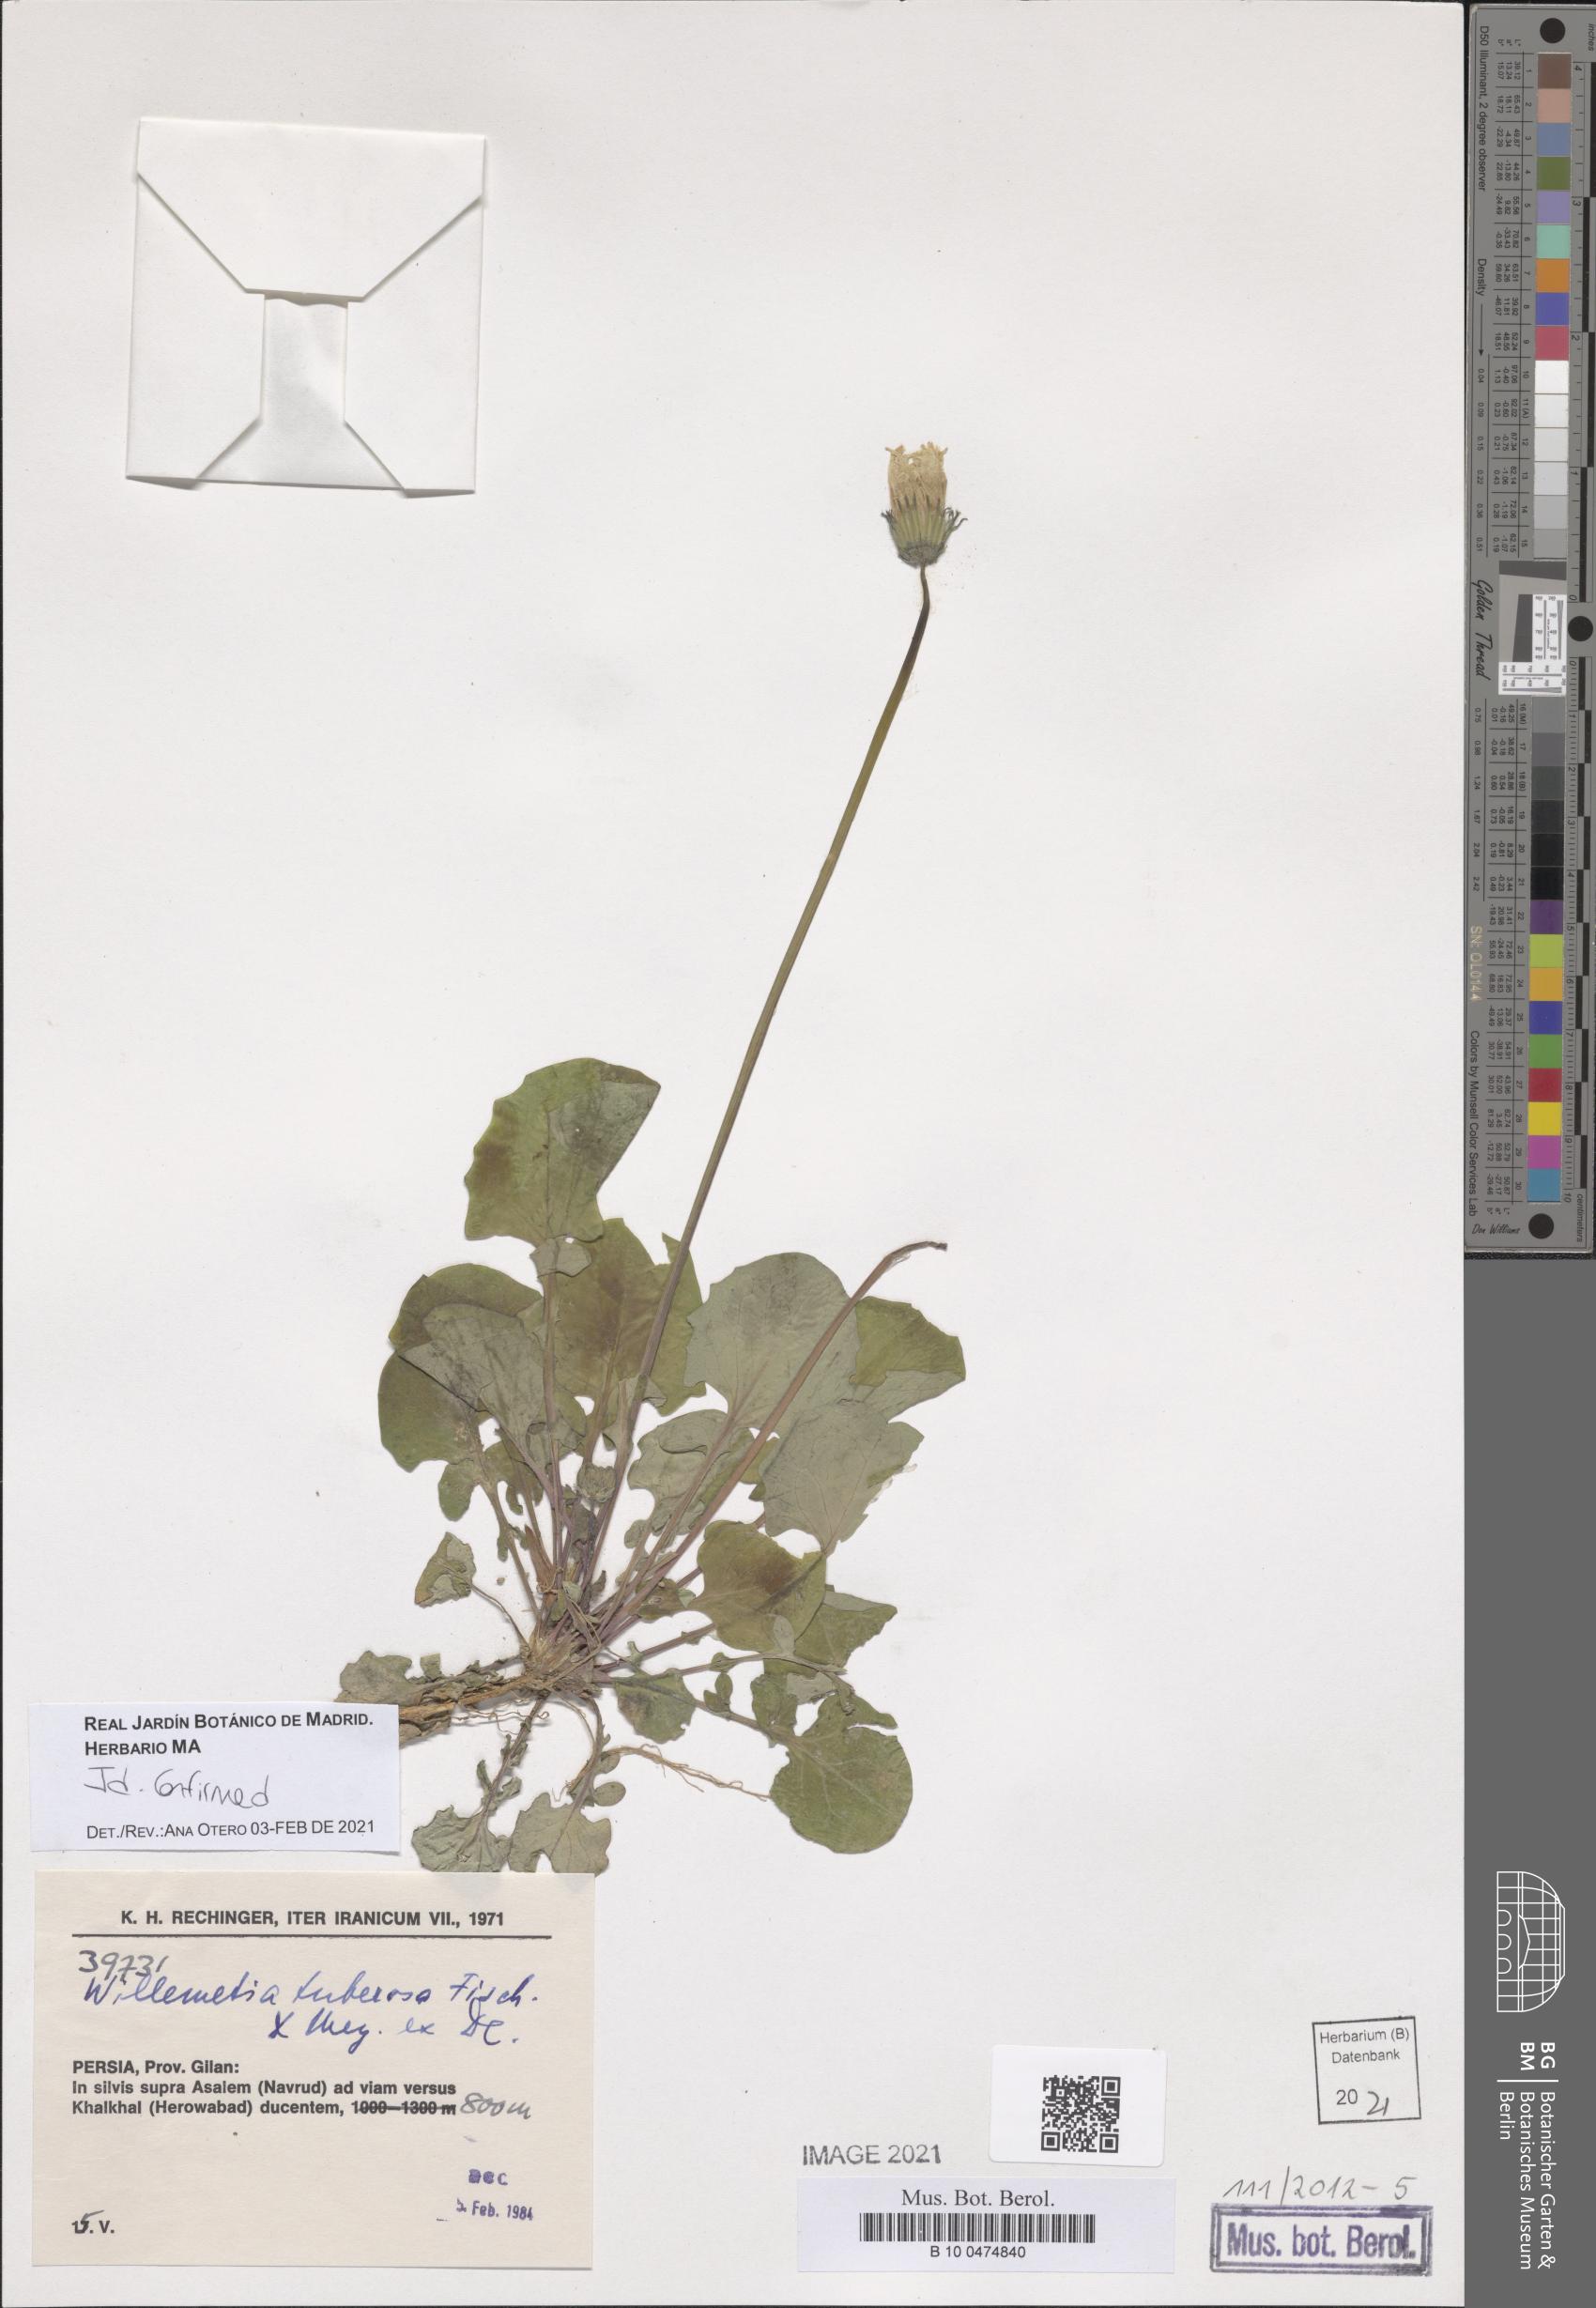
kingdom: Plantae
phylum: Tracheophyta
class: Magnoliopsida
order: Asterales
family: Asteraceae
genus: Willemetia
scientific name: Willemetia tuberosa
